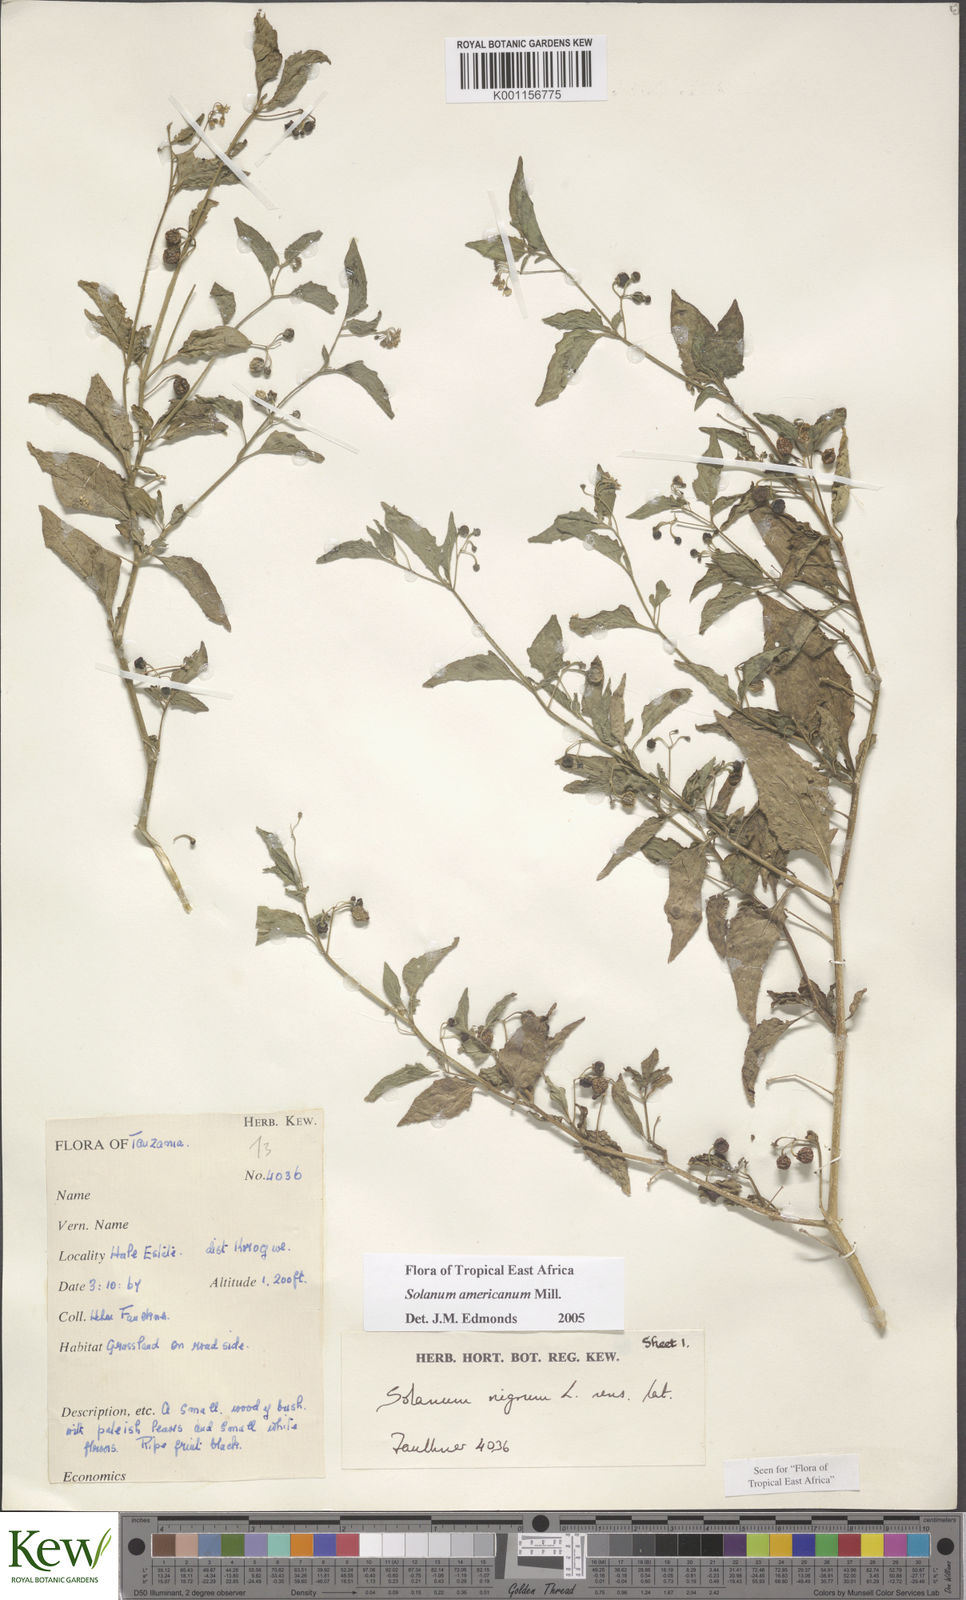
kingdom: Plantae
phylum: Tracheophyta
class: Magnoliopsida
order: Solanales
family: Solanaceae
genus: Solanum
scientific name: Solanum americanum
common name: American black nightshade
